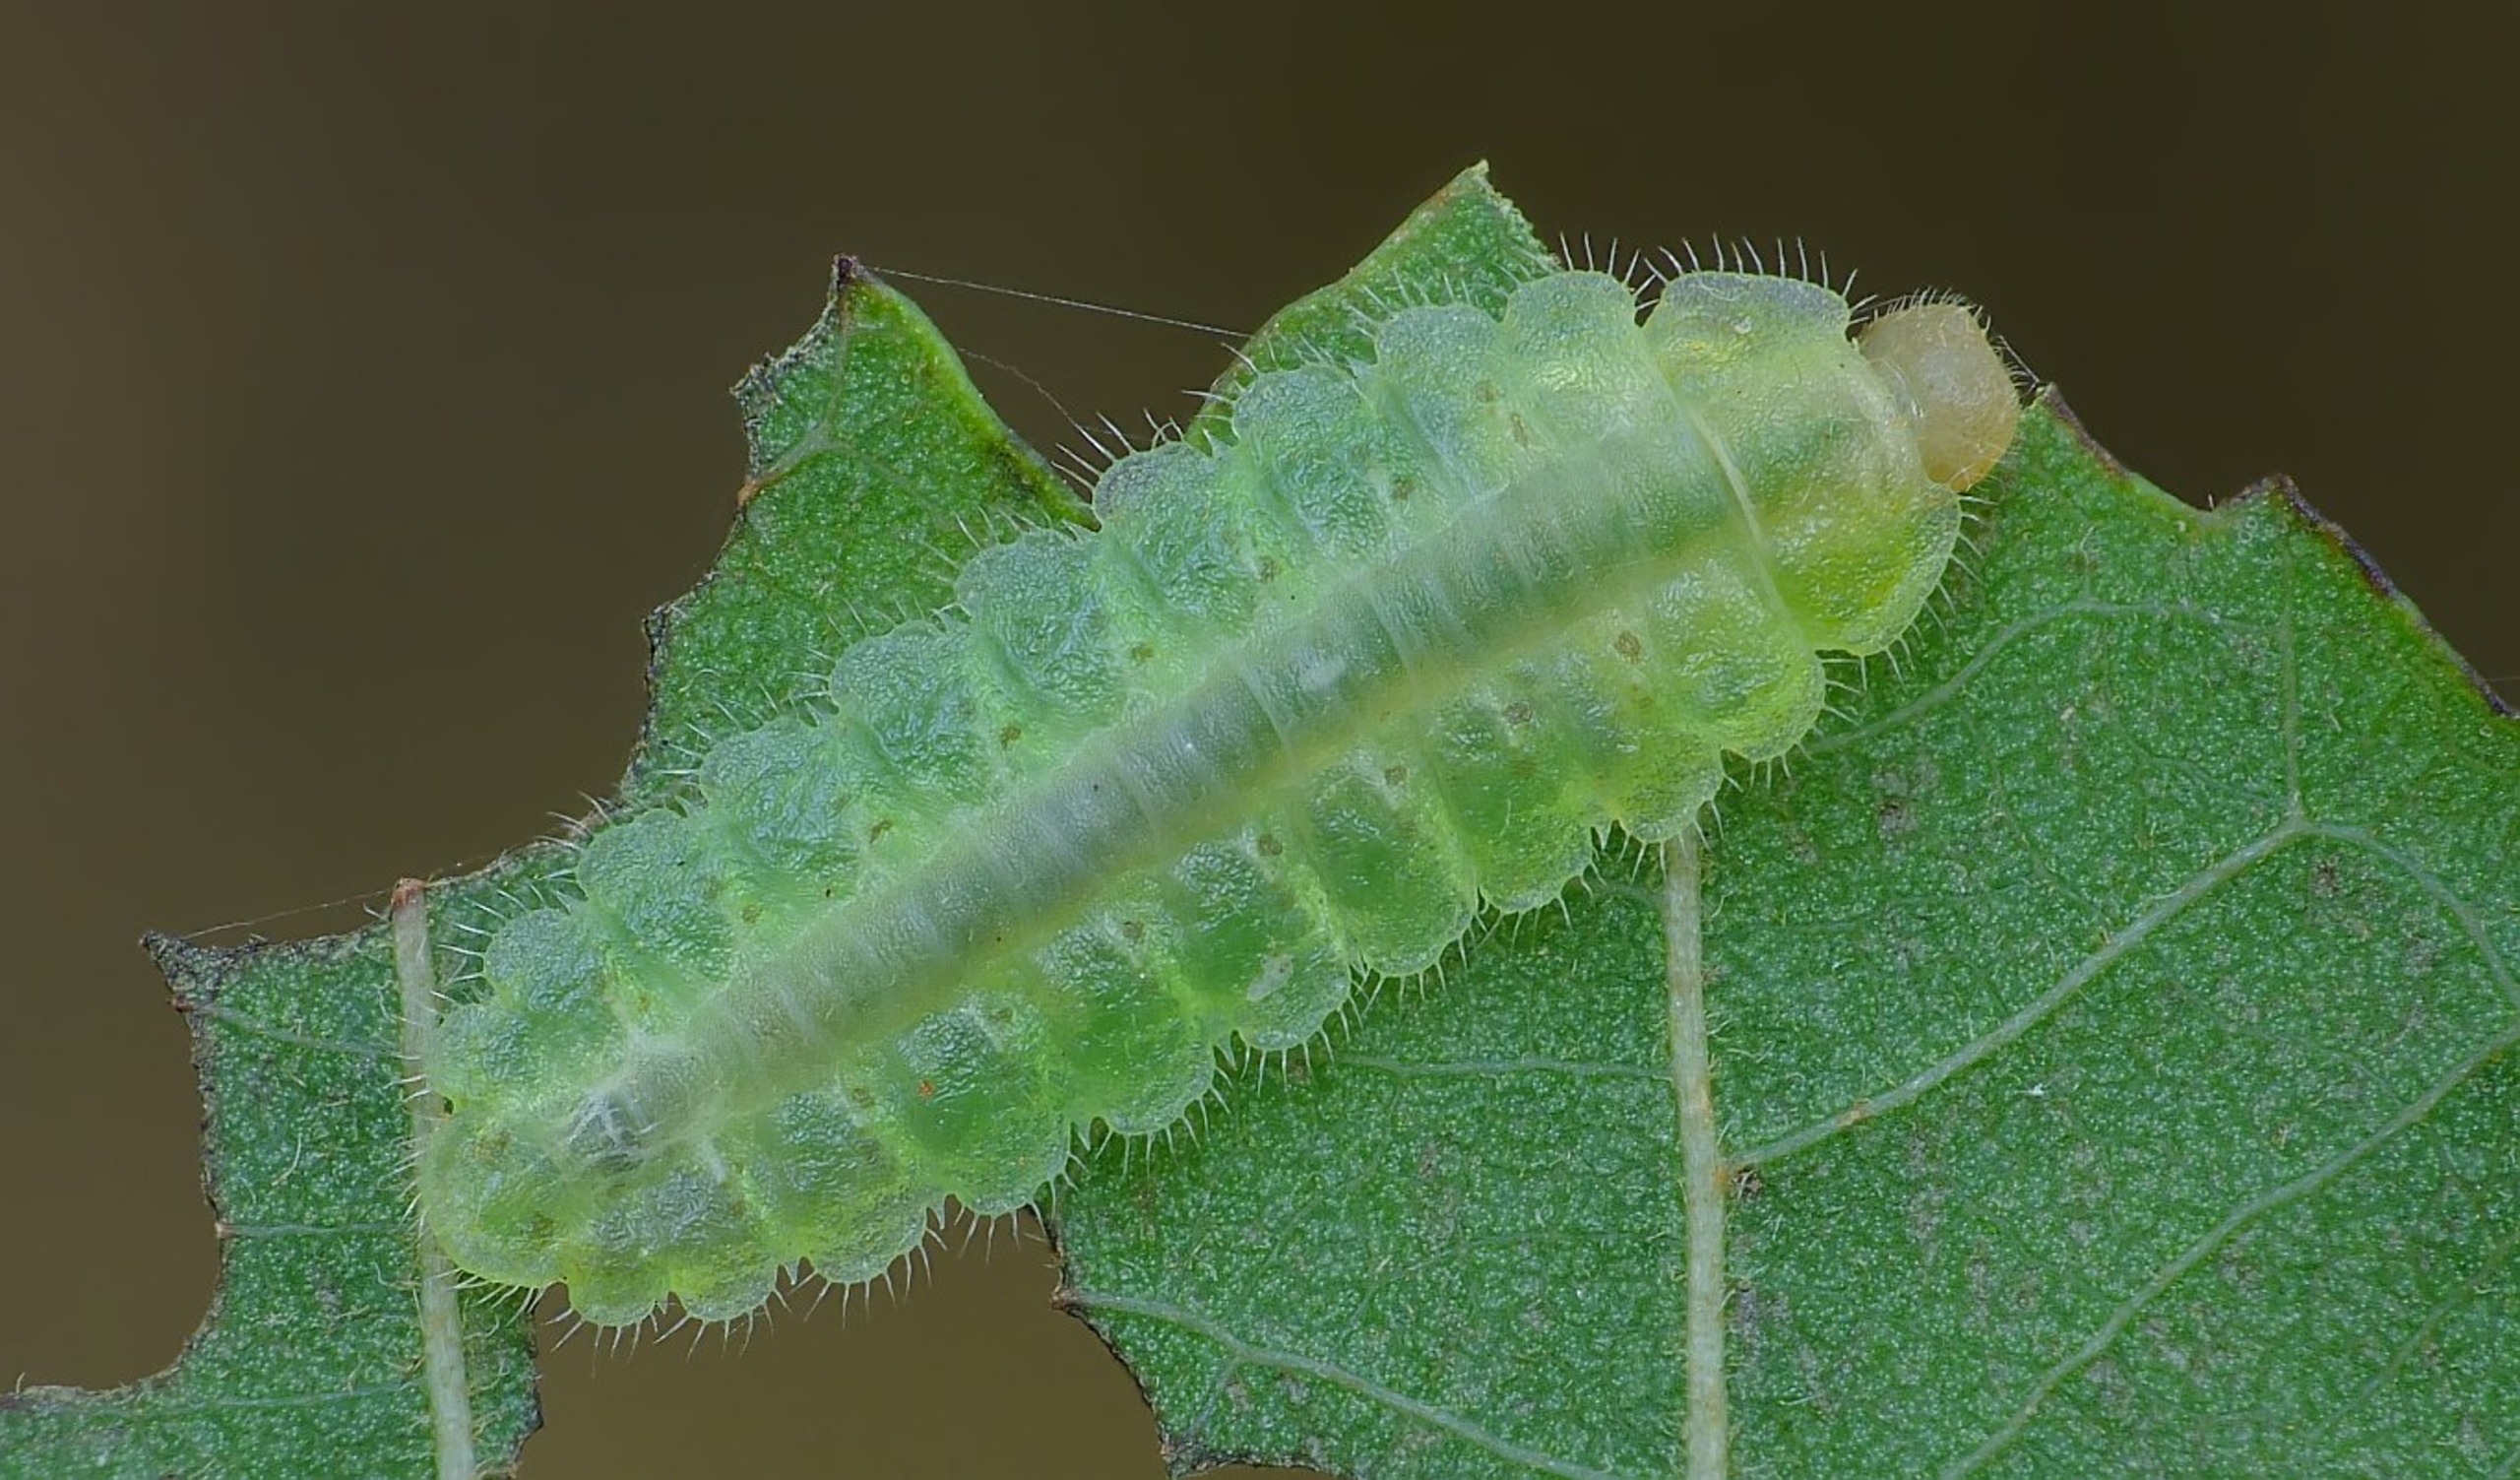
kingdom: Animalia
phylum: Arthropoda
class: Insecta
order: Hymenoptera
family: Tenthredinidae
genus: Platycampus
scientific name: Platycampus luridiventris
